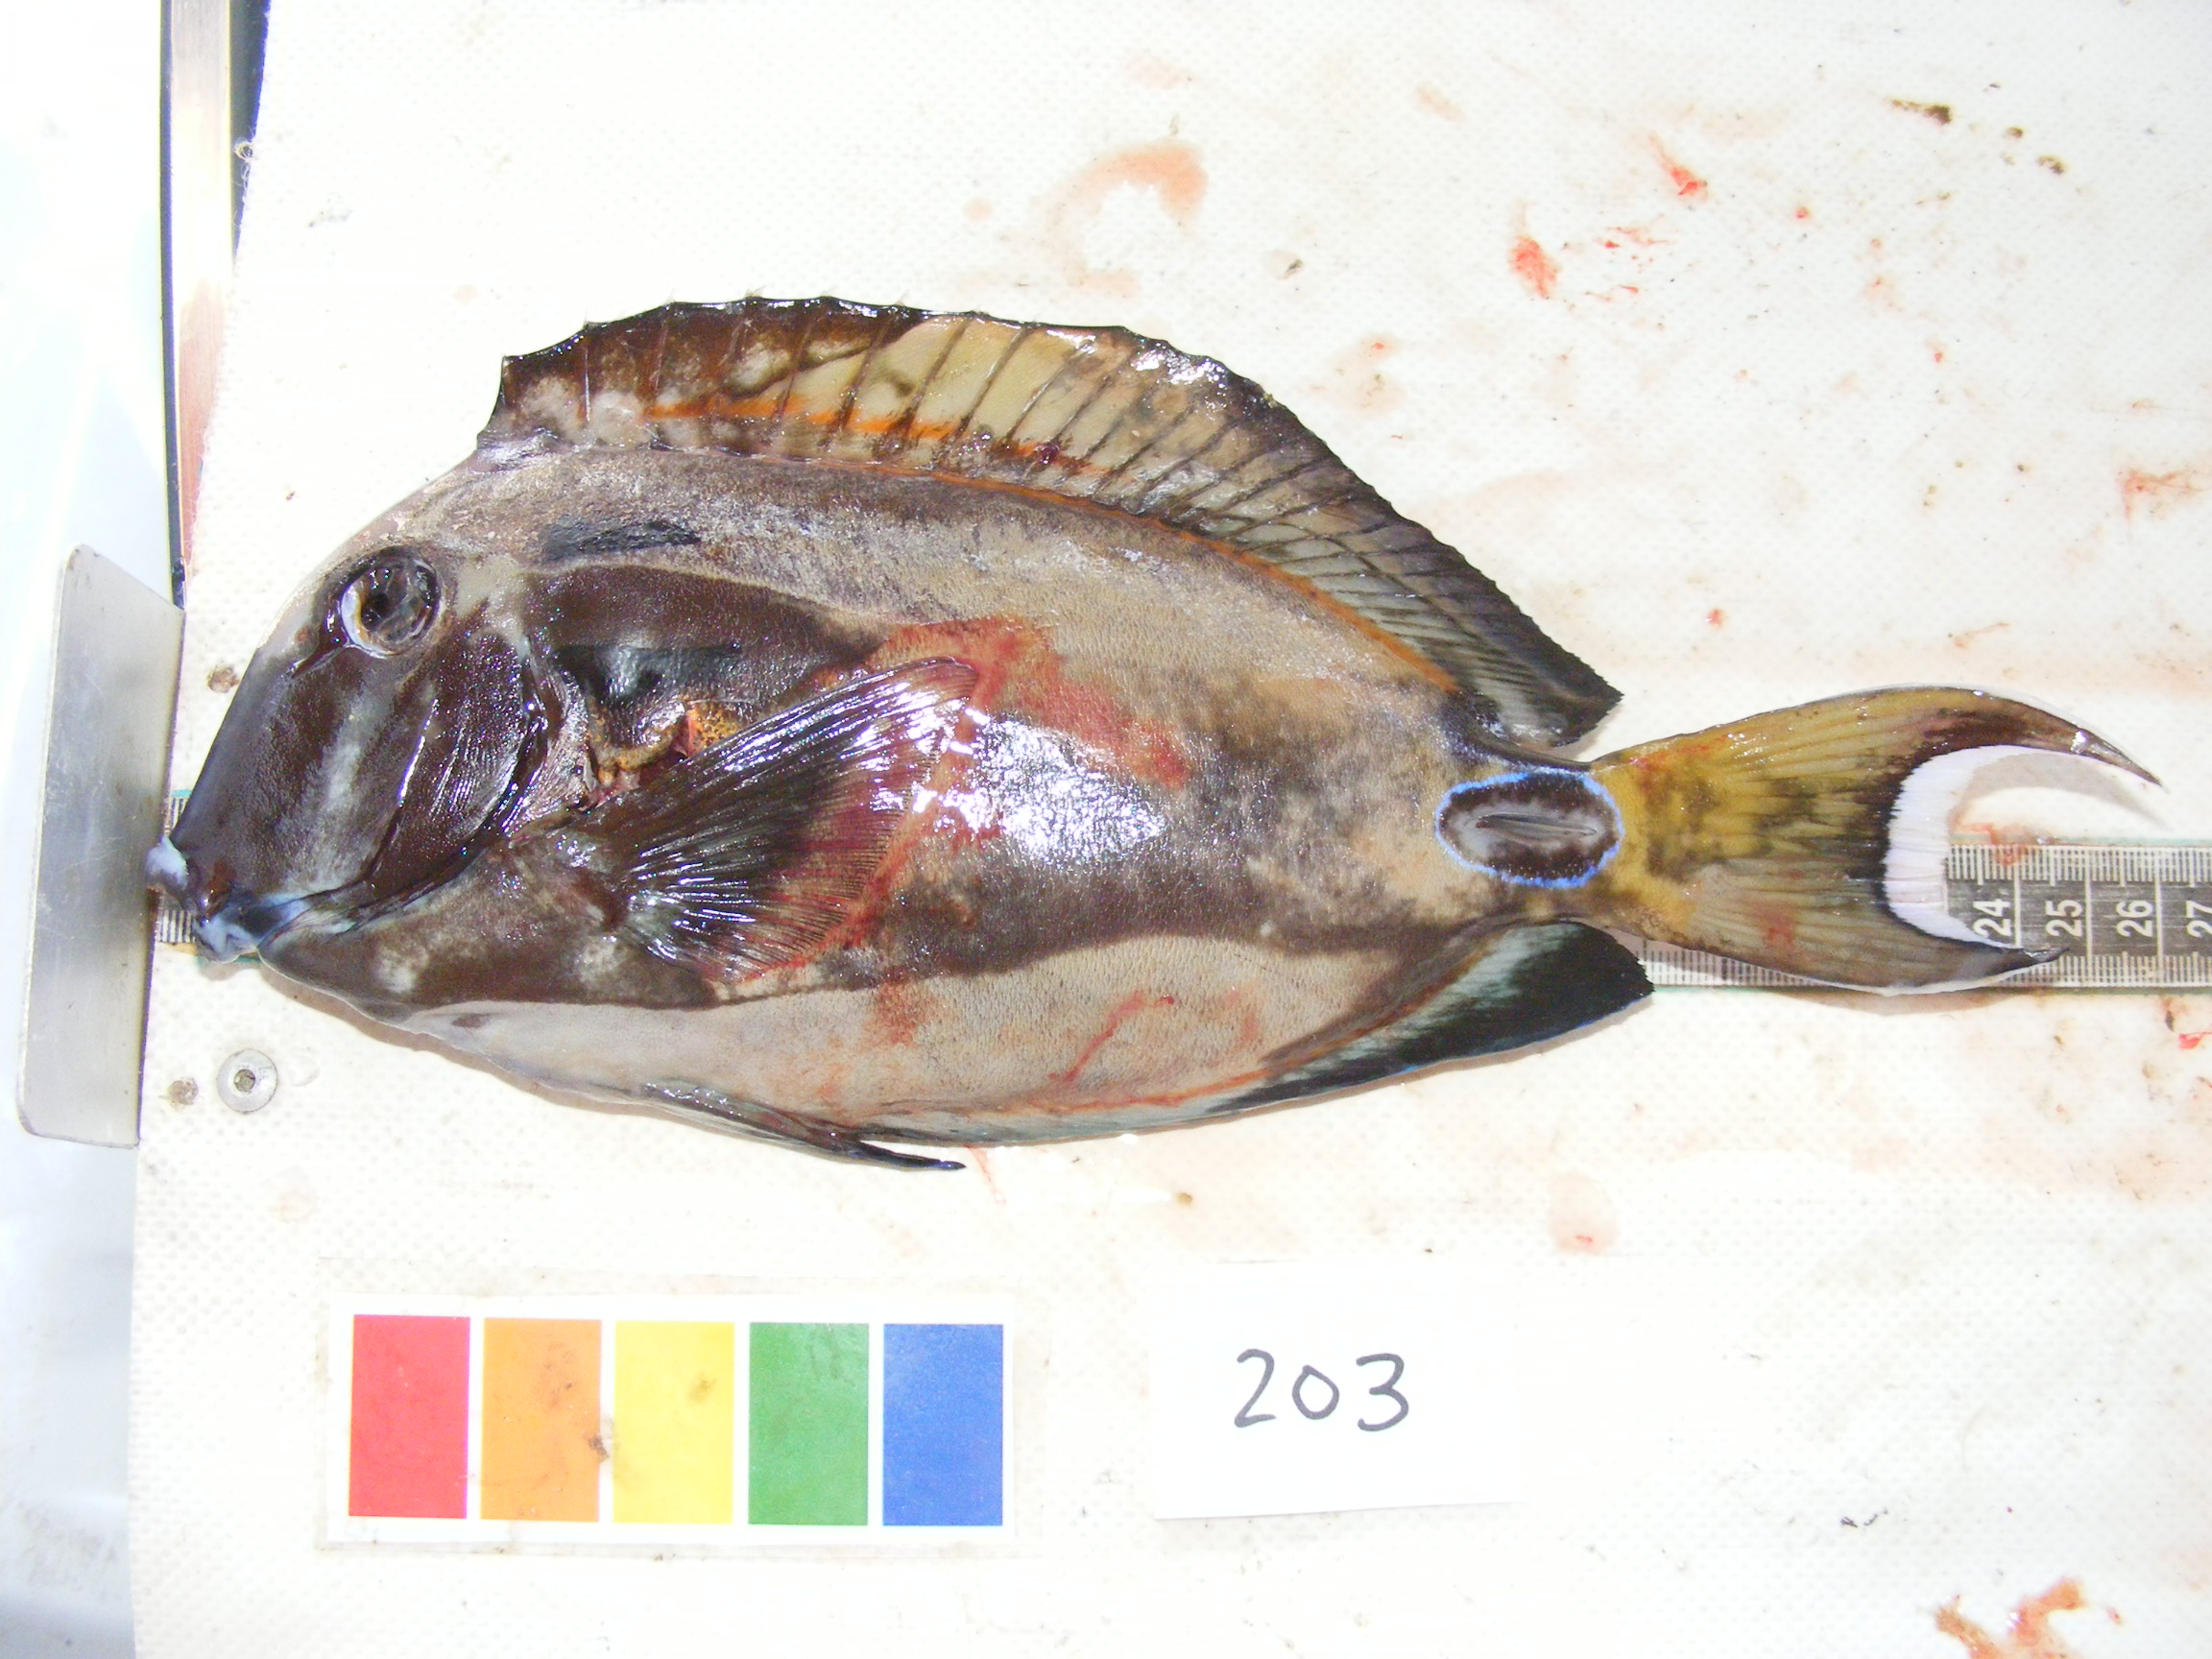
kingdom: Animalia
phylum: Chordata
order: Perciformes
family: Acanthuridae
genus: Acanthurus
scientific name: Acanthurus tennentii
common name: Doubleband surgeonfish
